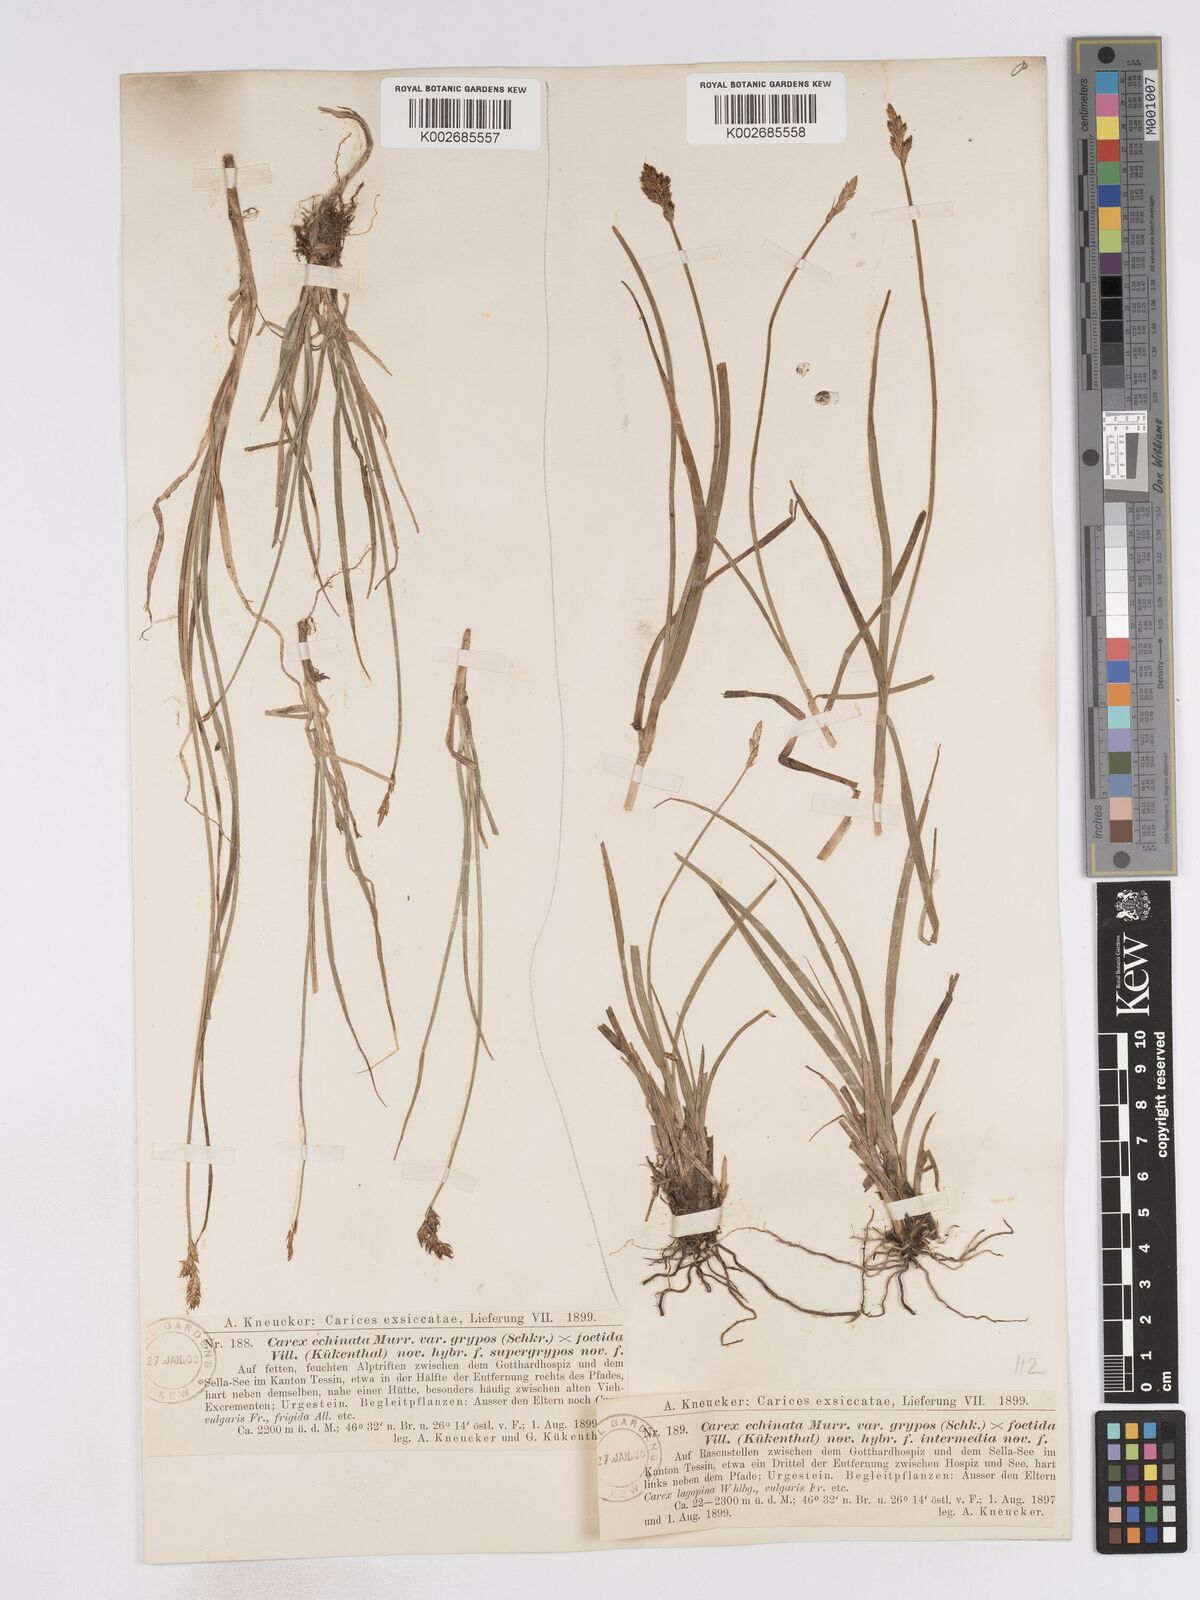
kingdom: Plantae
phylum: Tracheophyta
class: Liliopsida
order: Poales
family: Cyperaceae
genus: Carex
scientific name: Carex echinata
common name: Star sedge
